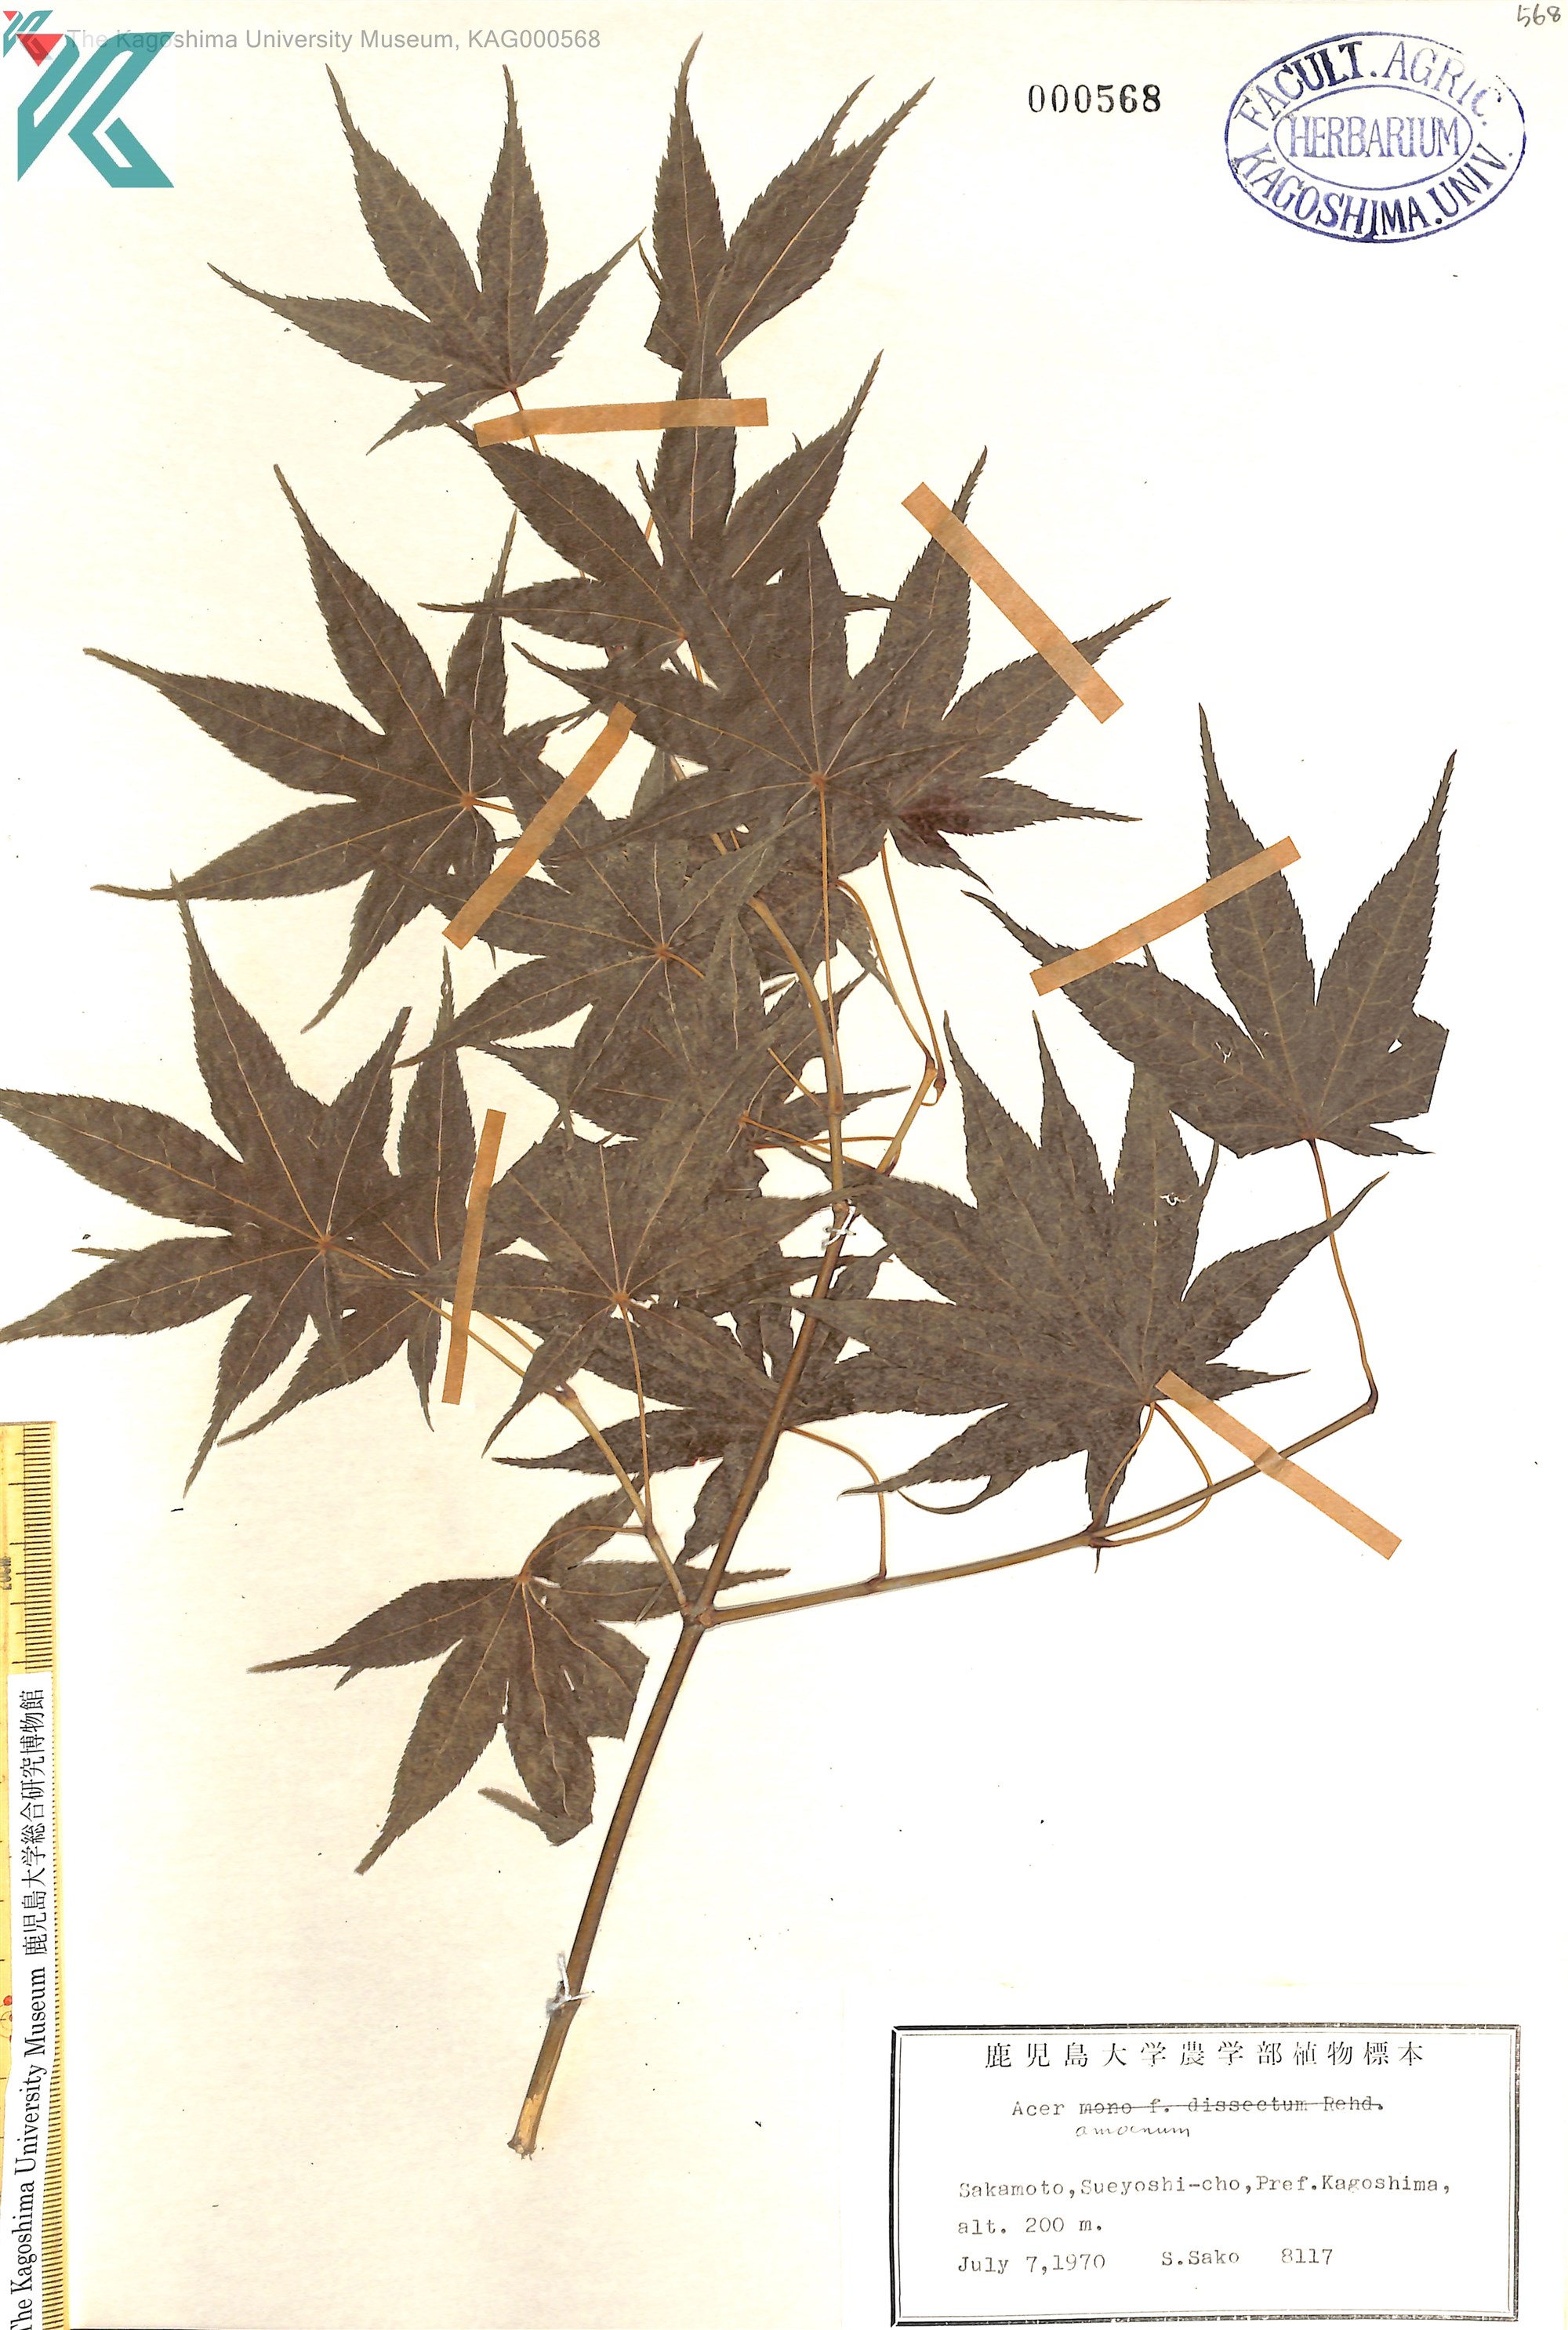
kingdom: Plantae
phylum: Tracheophyta
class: Magnoliopsida
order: Sapindales
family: Sapindaceae
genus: Acer
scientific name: Acer palmatum
